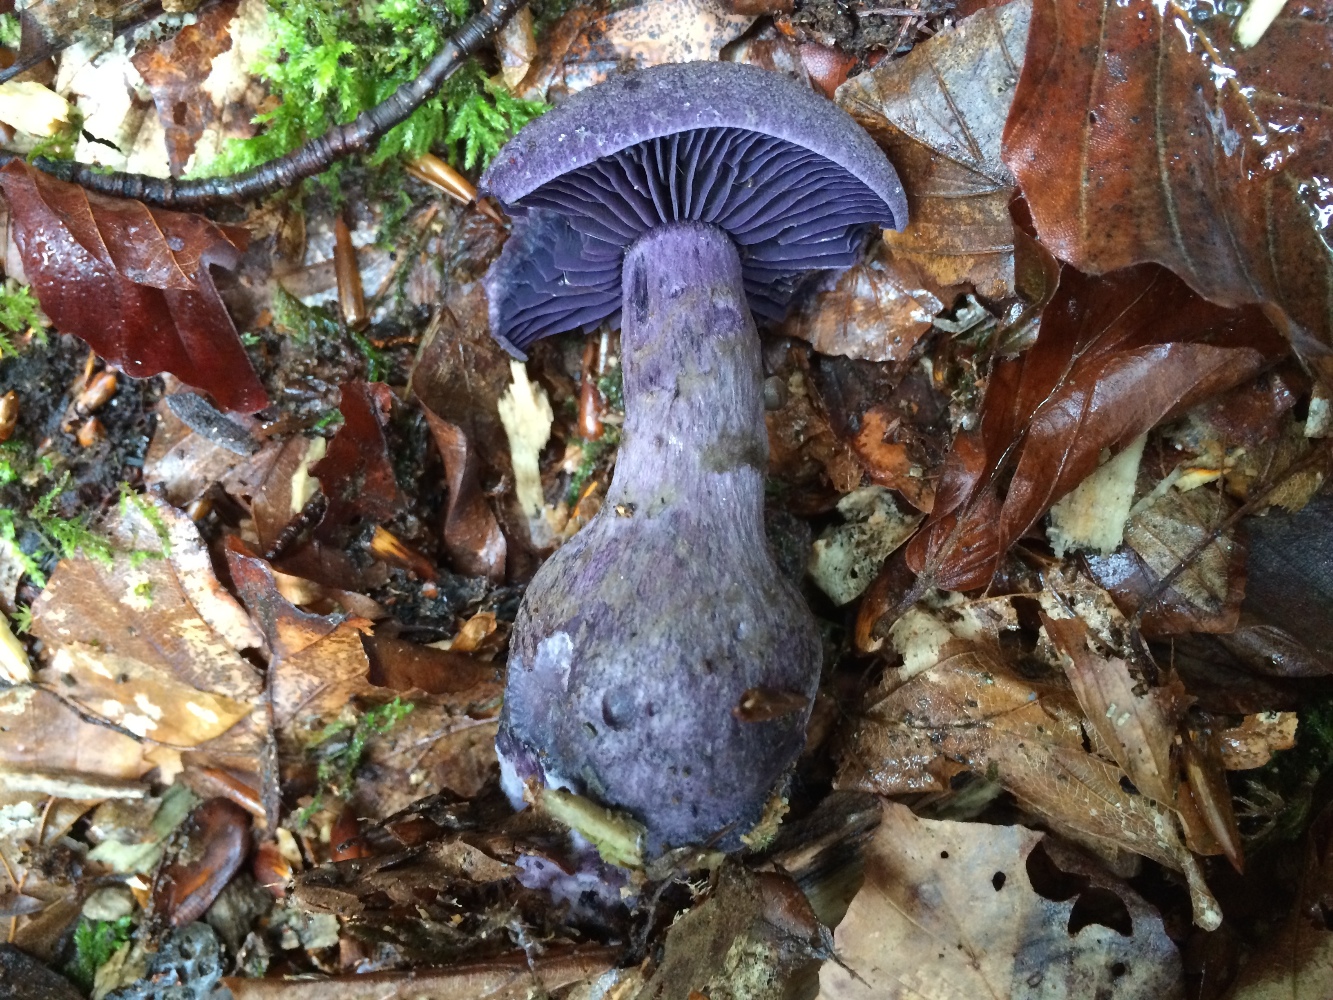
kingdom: Fungi
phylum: Basidiomycota
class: Agaricomycetes
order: Agaricales
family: Cortinariaceae
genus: Cortinarius
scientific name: Cortinarius violaceus
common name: mørkviolet slørhat
